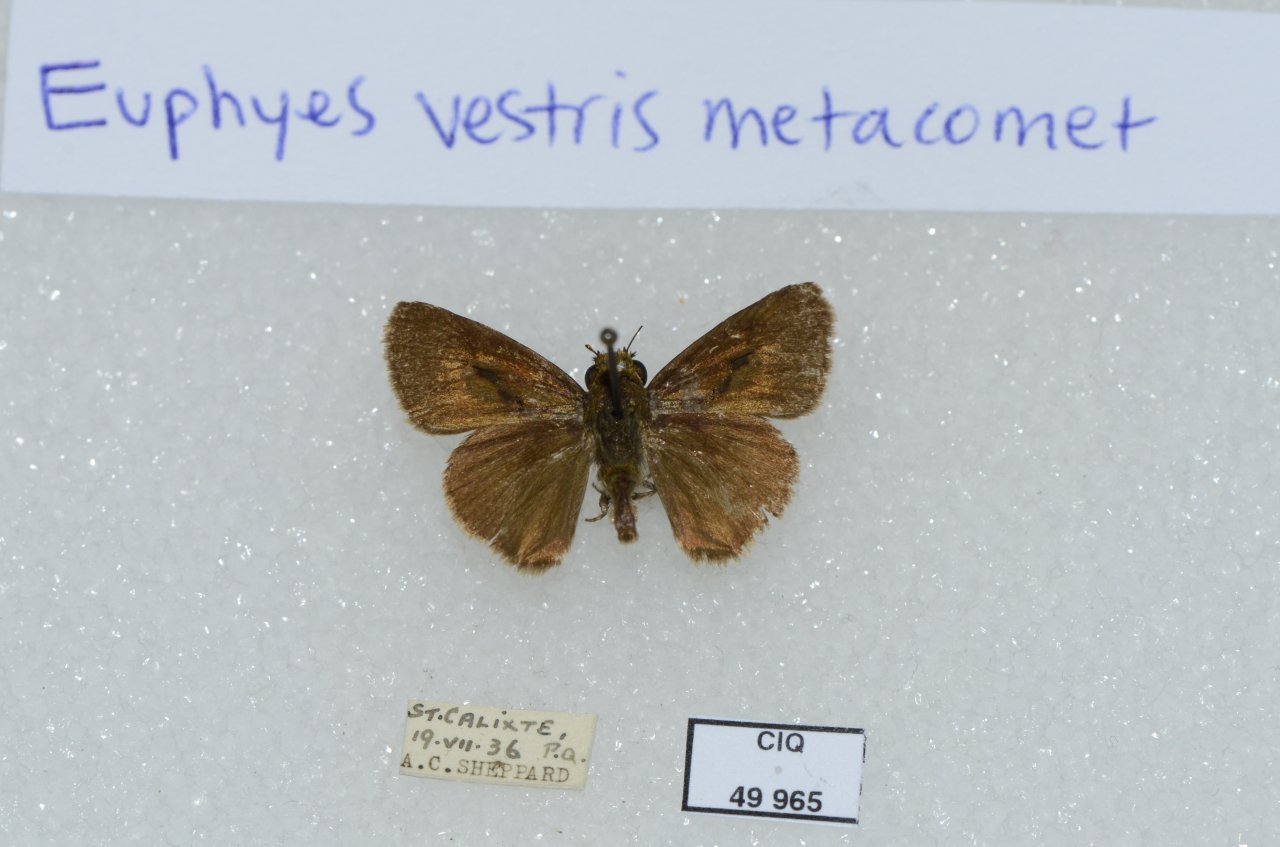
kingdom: Animalia
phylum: Arthropoda
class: Insecta
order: Lepidoptera
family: Hesperiidae
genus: Euphyes
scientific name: Euphyes vestris
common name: Dun Skipper
